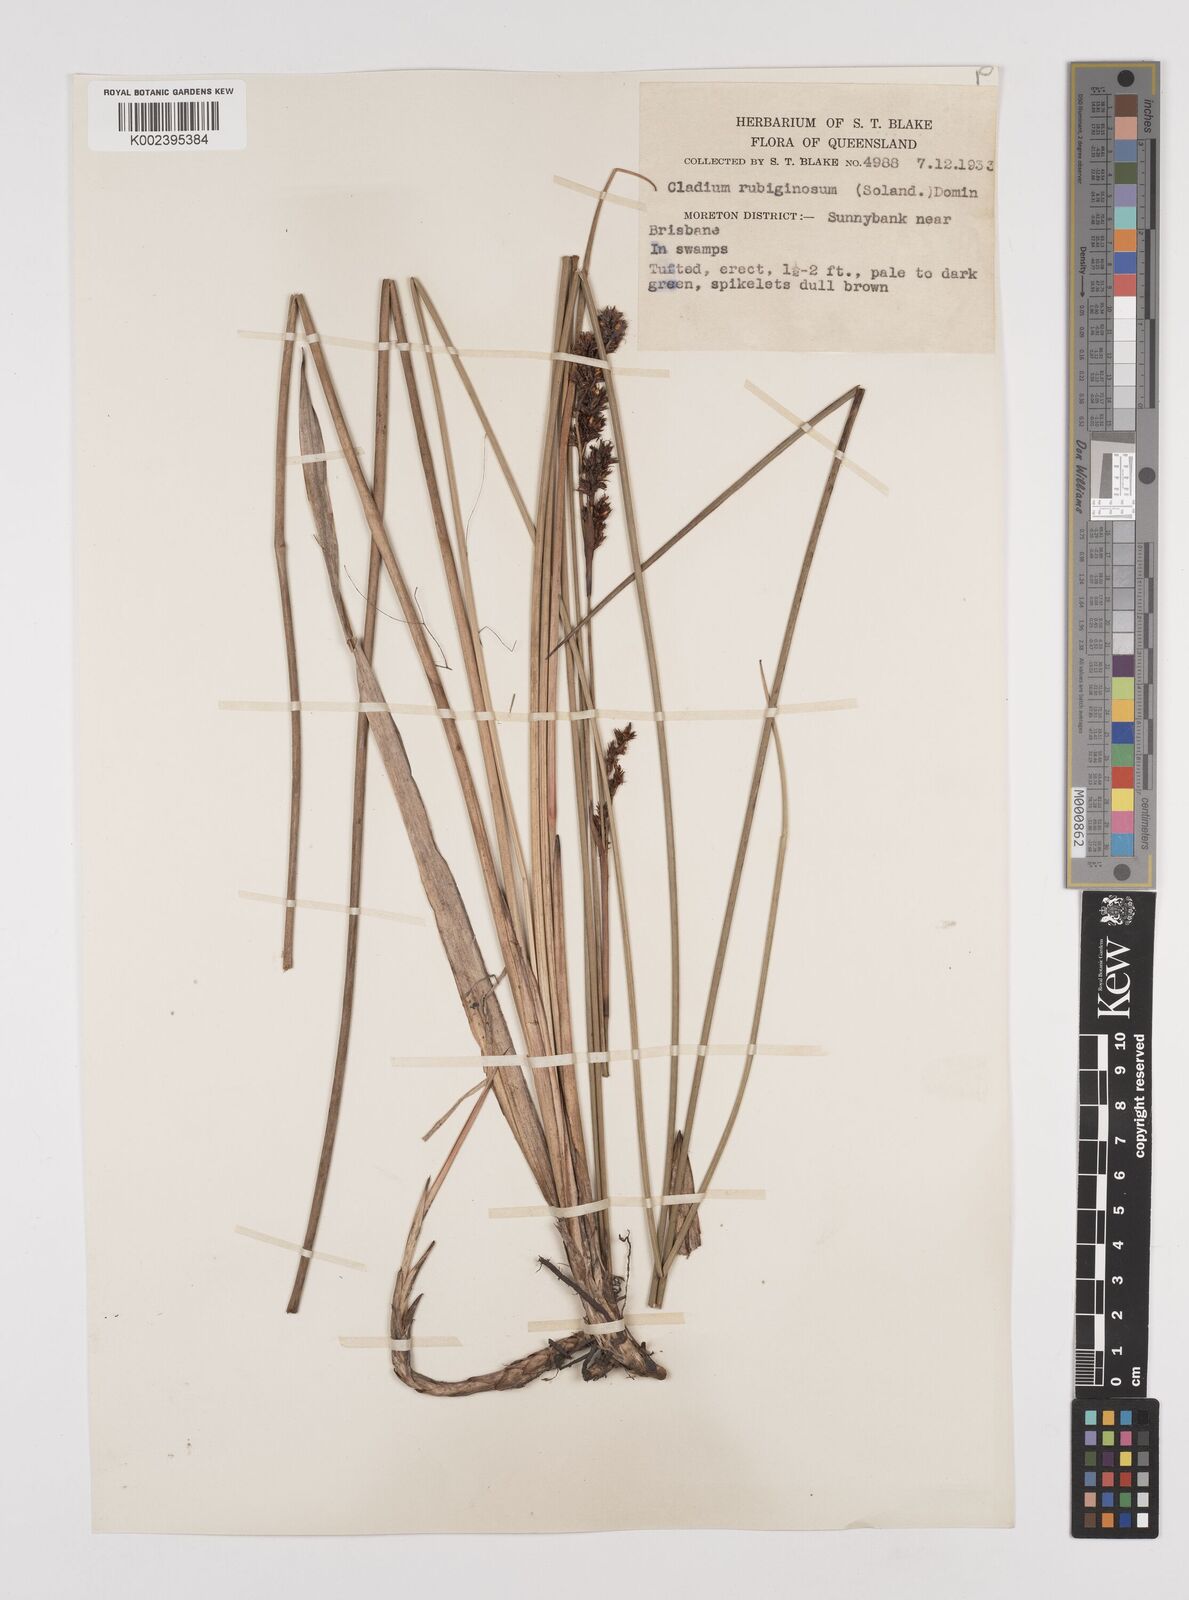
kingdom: Plantae
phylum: Tracheophyta
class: Liliopsida
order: Poales
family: Cyperaceae
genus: Machaerina
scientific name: Machaerina rubiginosa
